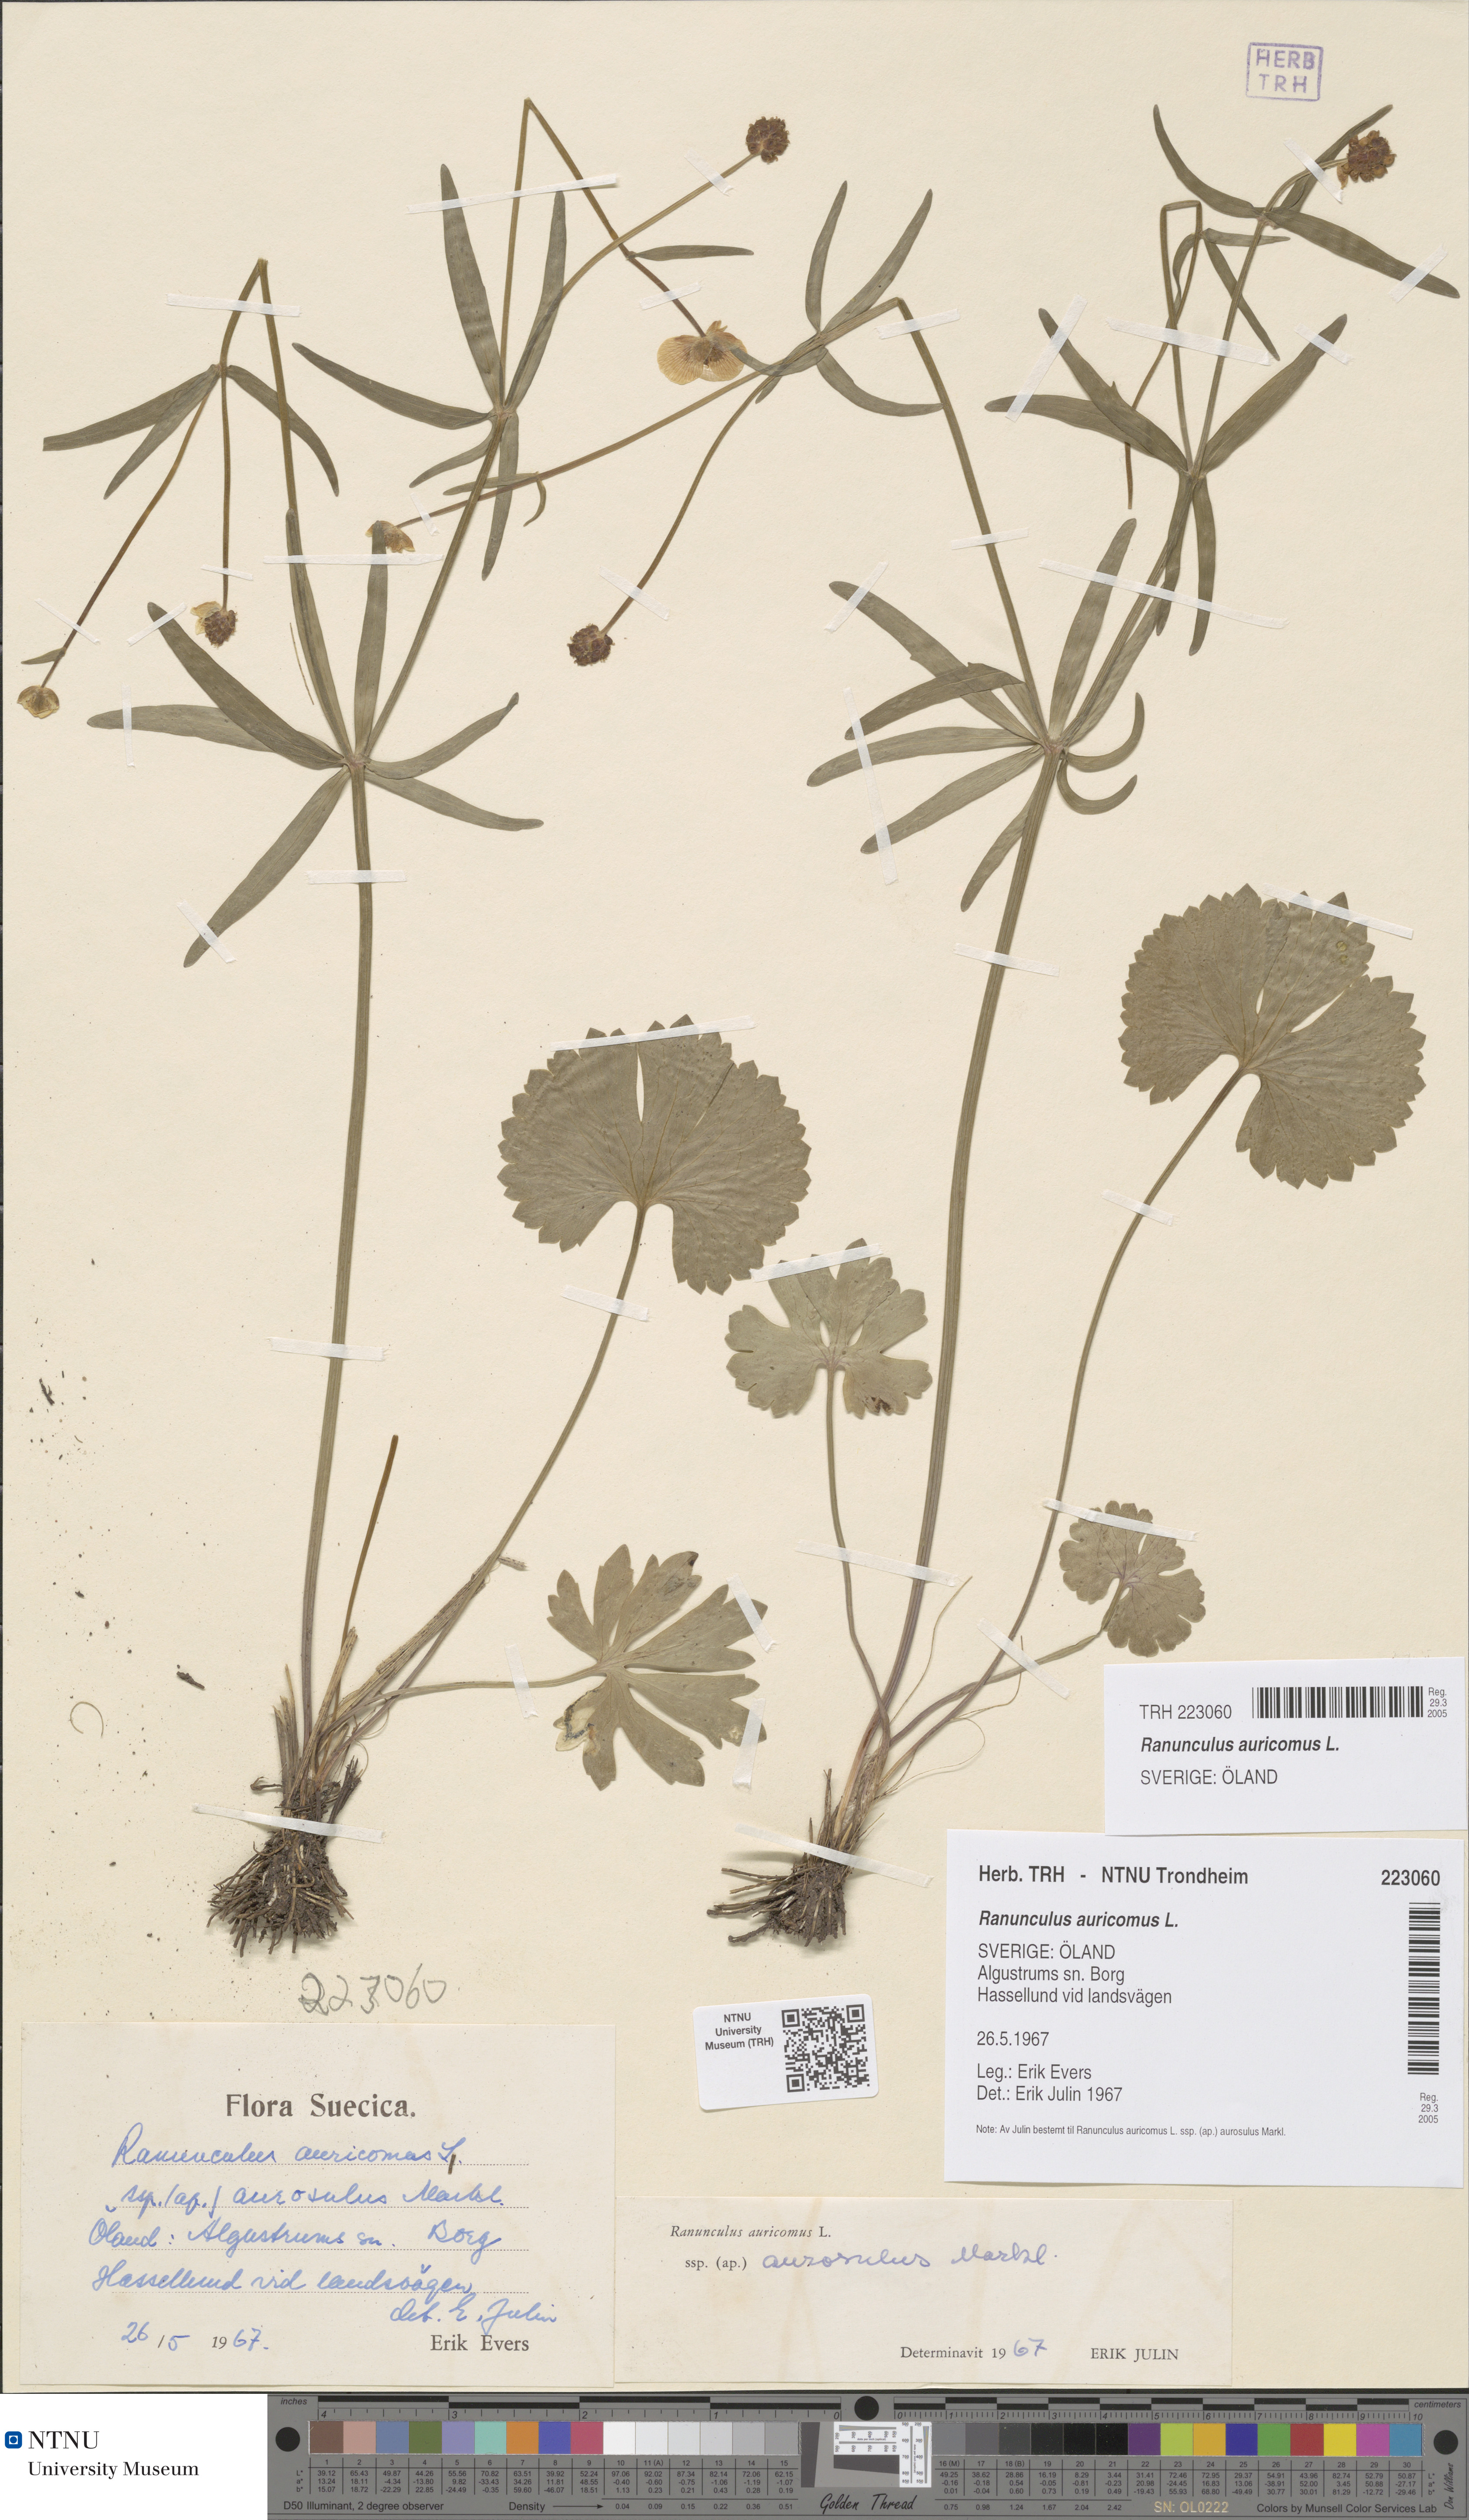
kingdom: Plantae
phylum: Tracheophyta
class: Magnoliopsida
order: Ranunculales
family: Ranunculaceae
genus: Ranunculus
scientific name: Ranunculus auricomus
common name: Goldilocks buttercup
